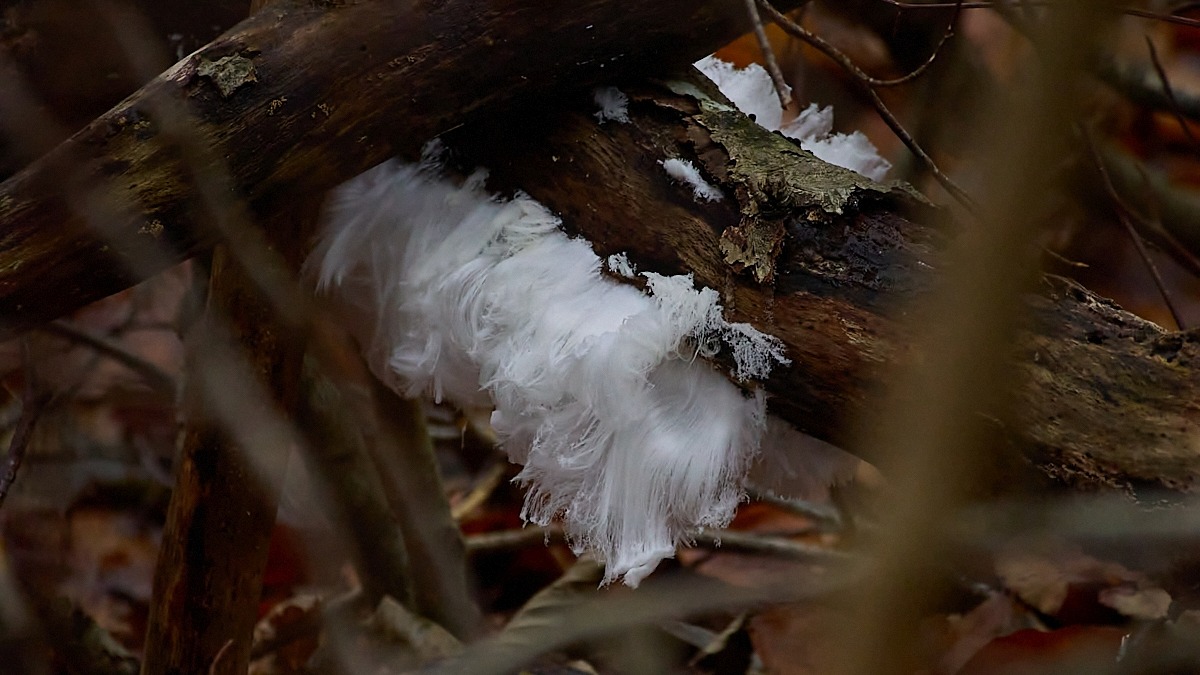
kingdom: Fungi
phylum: Basidiomycota
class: Tremellomycetes
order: Tremellales
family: Exidiaceae
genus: Exidiopsis
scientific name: Exidiopsis effusa
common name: Smuk bævrehinde
